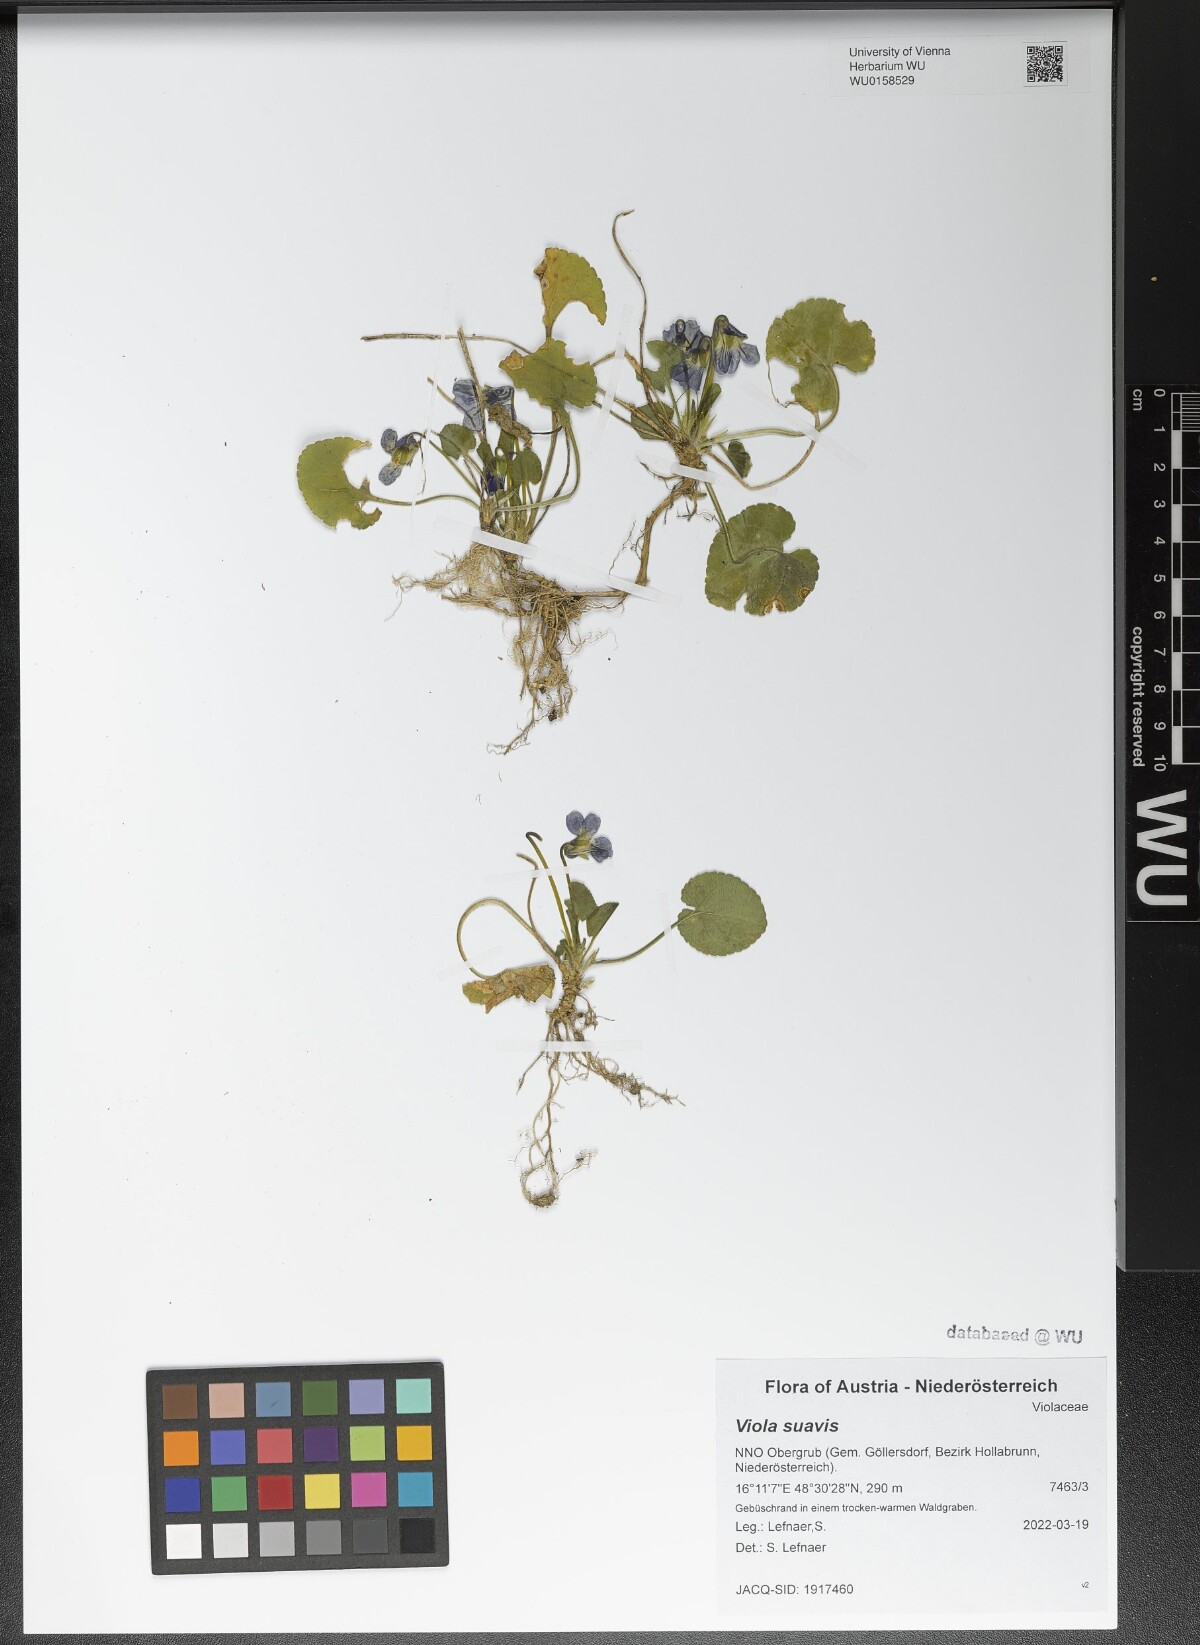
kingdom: Plantae
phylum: Tracheophyta
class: Magnoliopsida
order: Malpighiales
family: Violaceae
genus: Viola
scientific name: Viola suavis
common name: Russian violet
